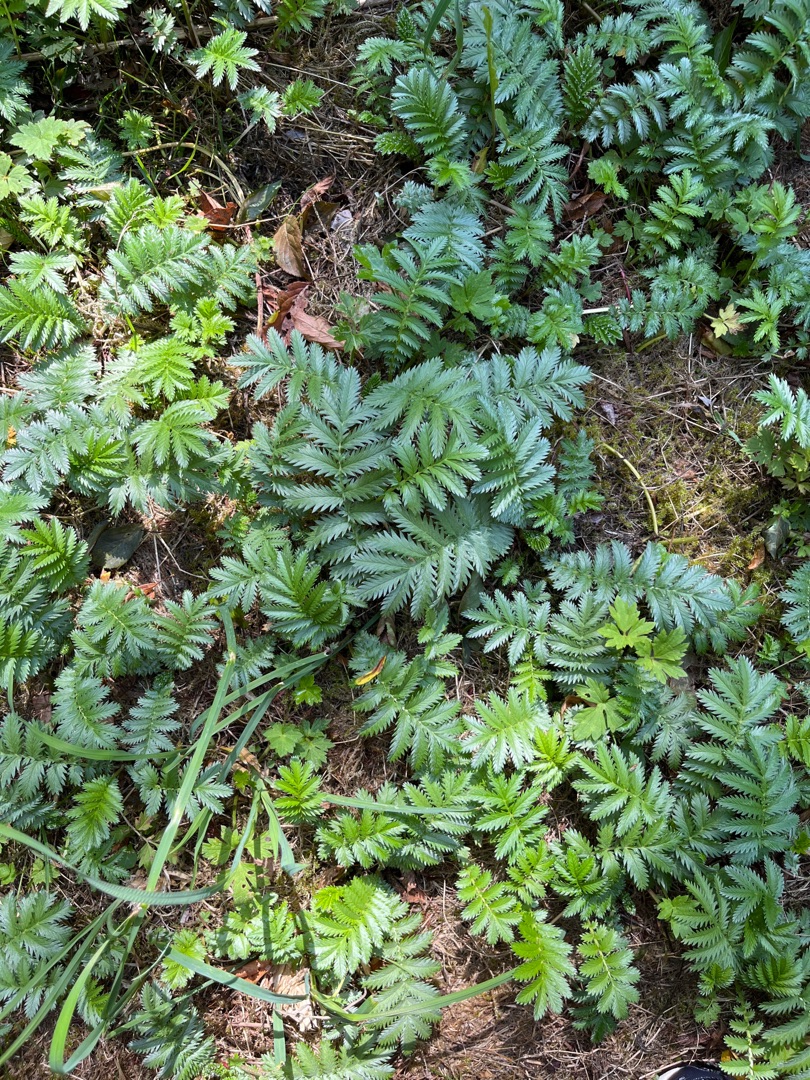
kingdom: Plantae
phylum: Tracheophyta
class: Magnoliopsida
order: Rosales
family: Rosaceae
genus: Argentina
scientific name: Argentina anserina
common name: Gåsepotentil
